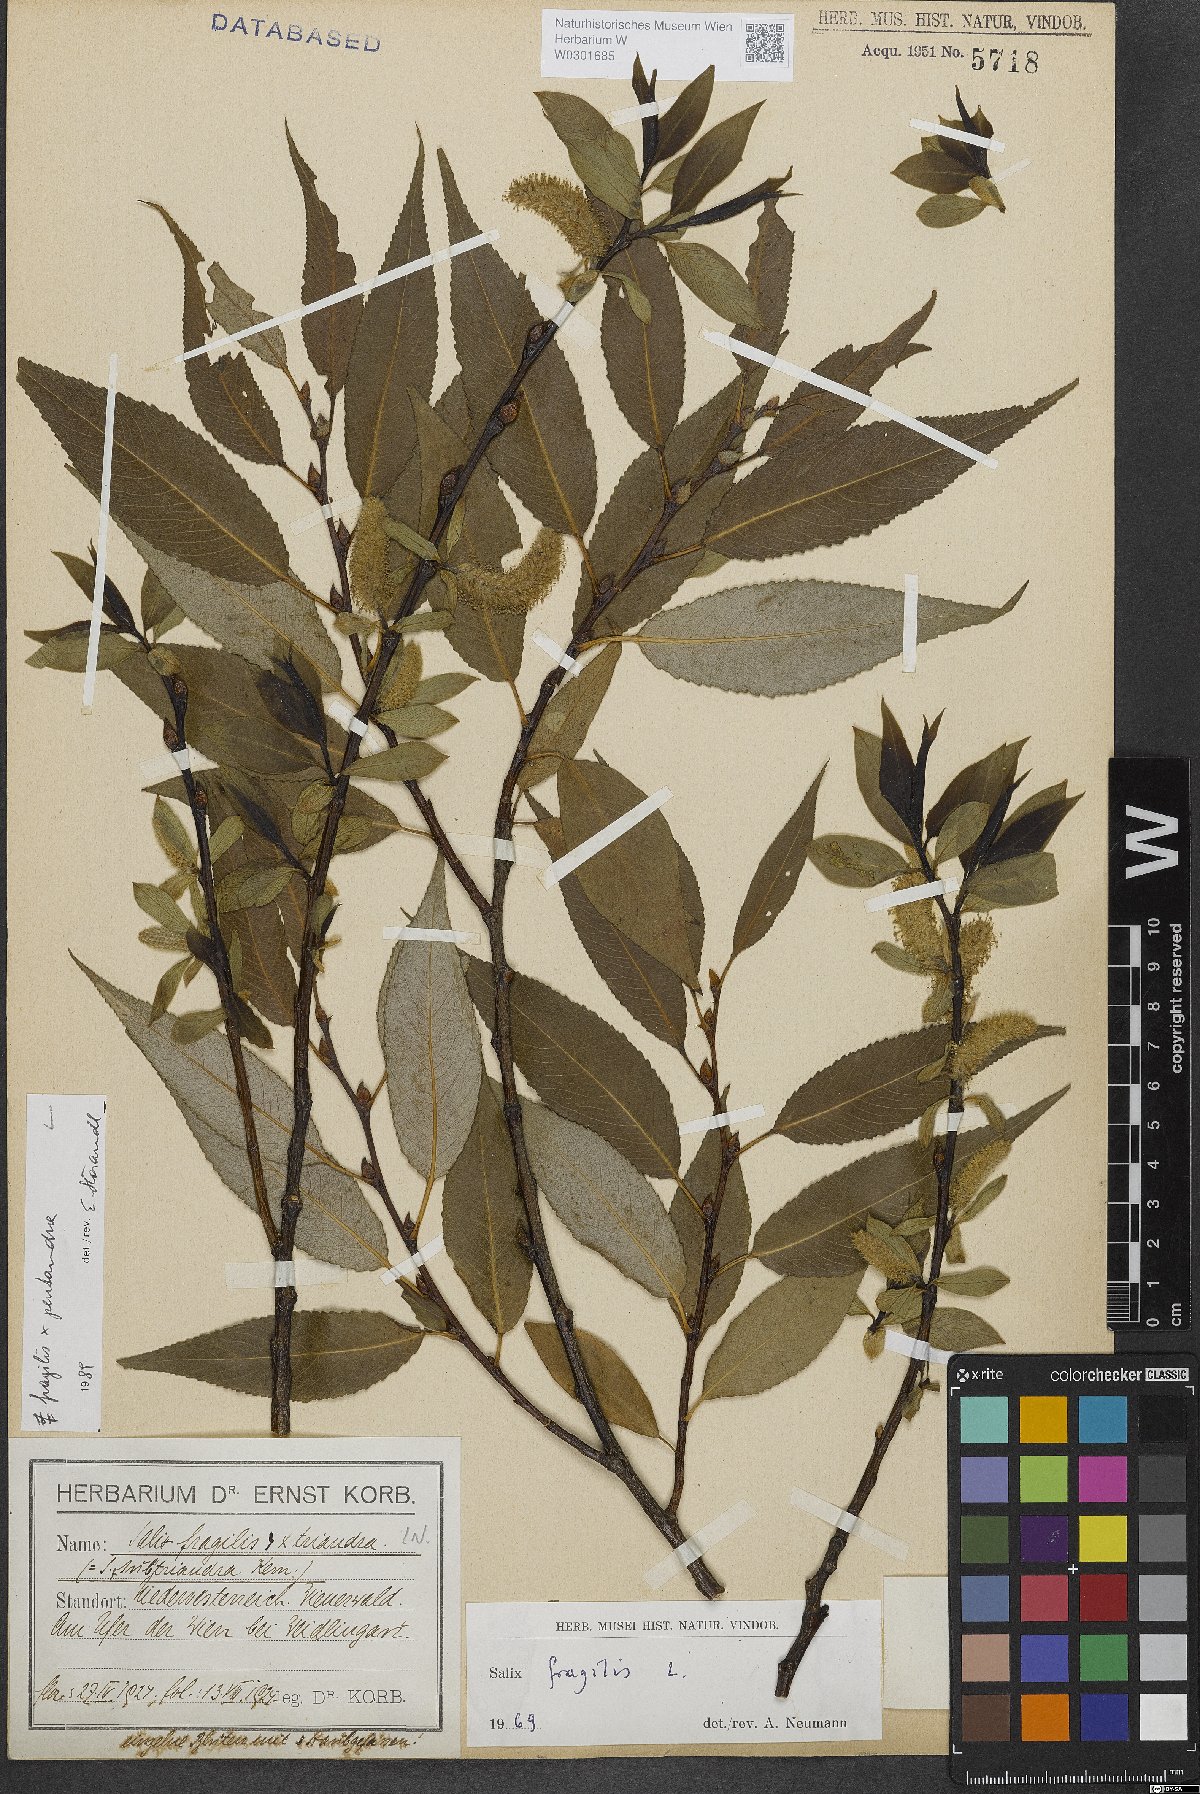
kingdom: Plantae
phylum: Tracheophyta
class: Magnoliopsida
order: Malpighiales
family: Salicaceae
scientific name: Salicaceae
